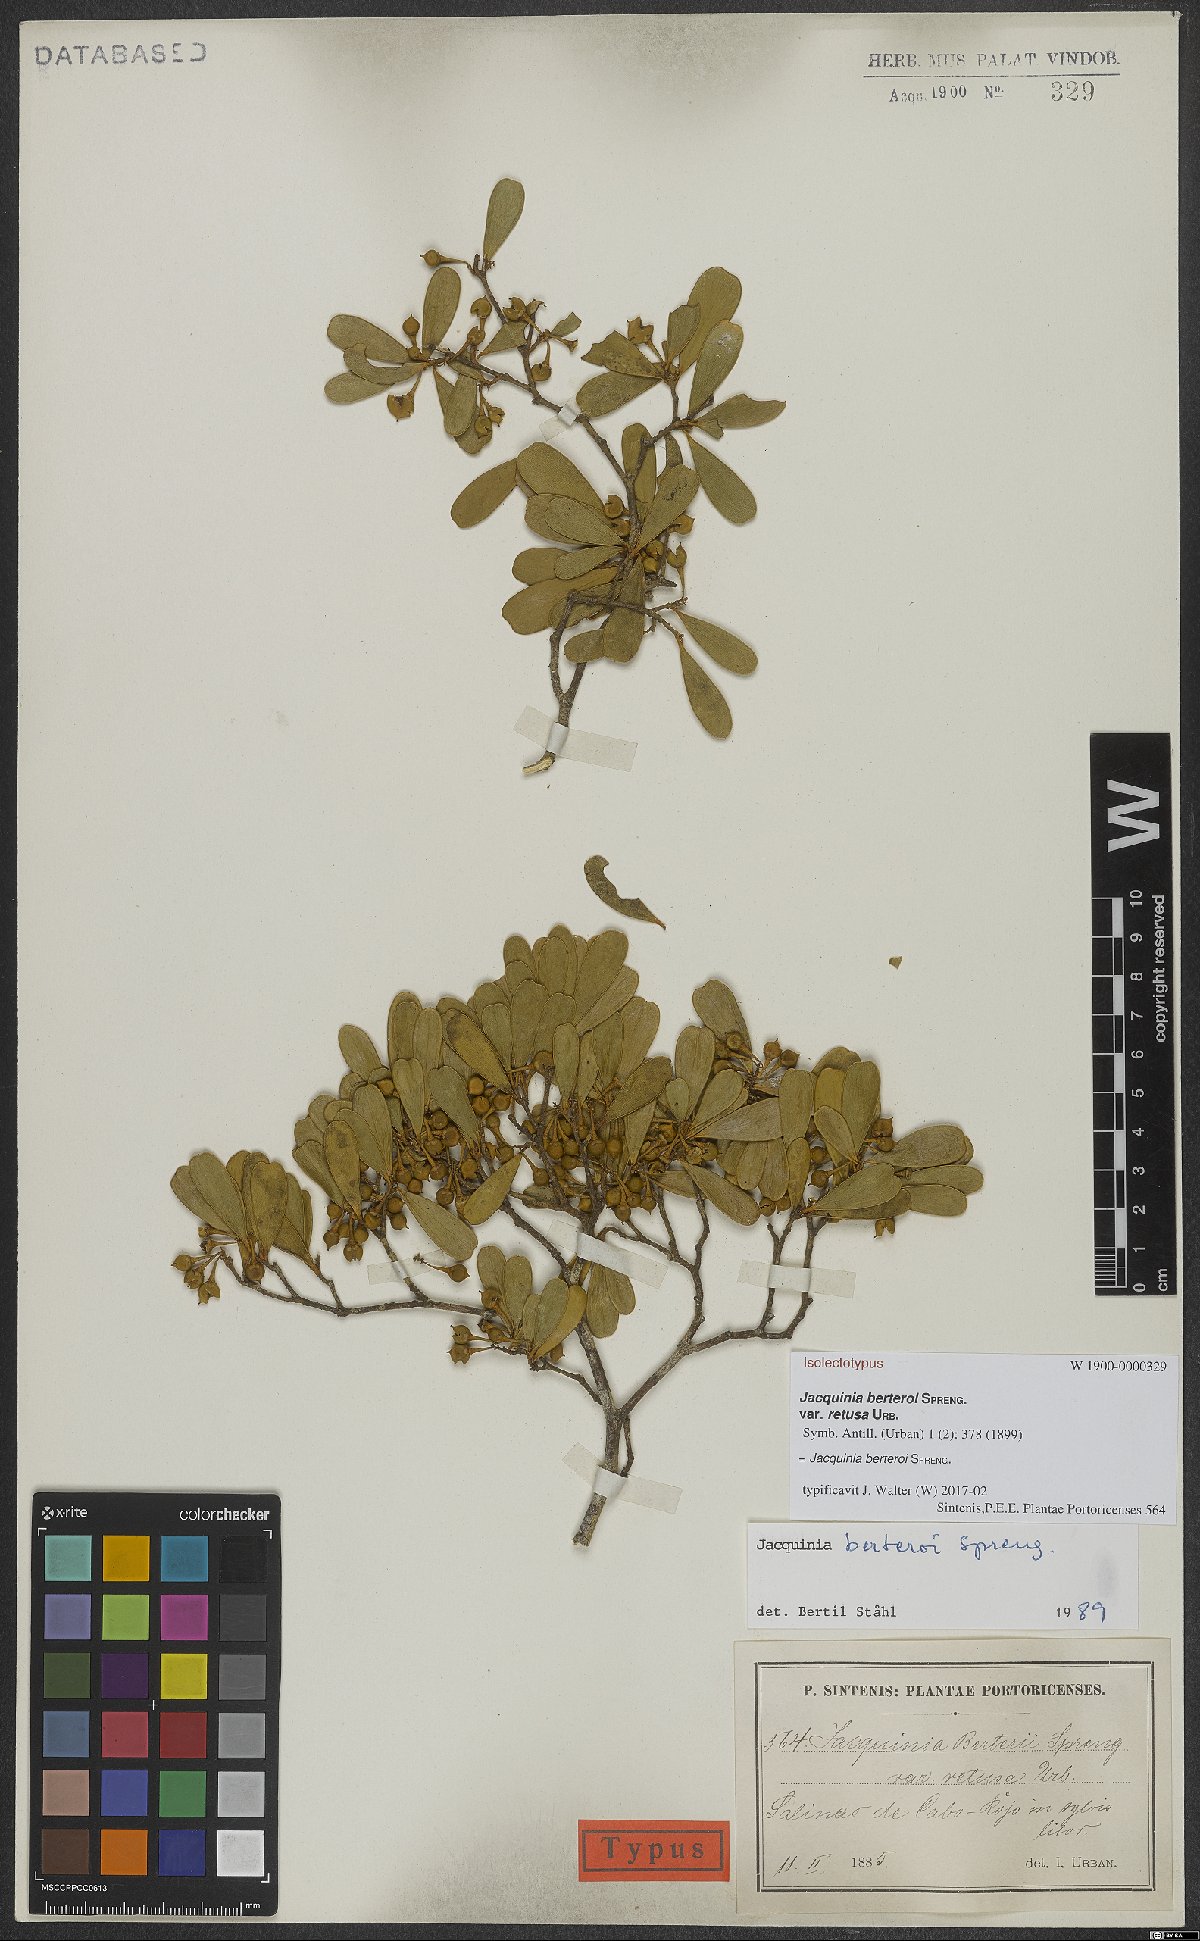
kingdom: Plantae
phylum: Tracheophyta
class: Magnoliopsida
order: Ericales
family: Primulaceae
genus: Jacquinia
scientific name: Jacquinia berteroi
